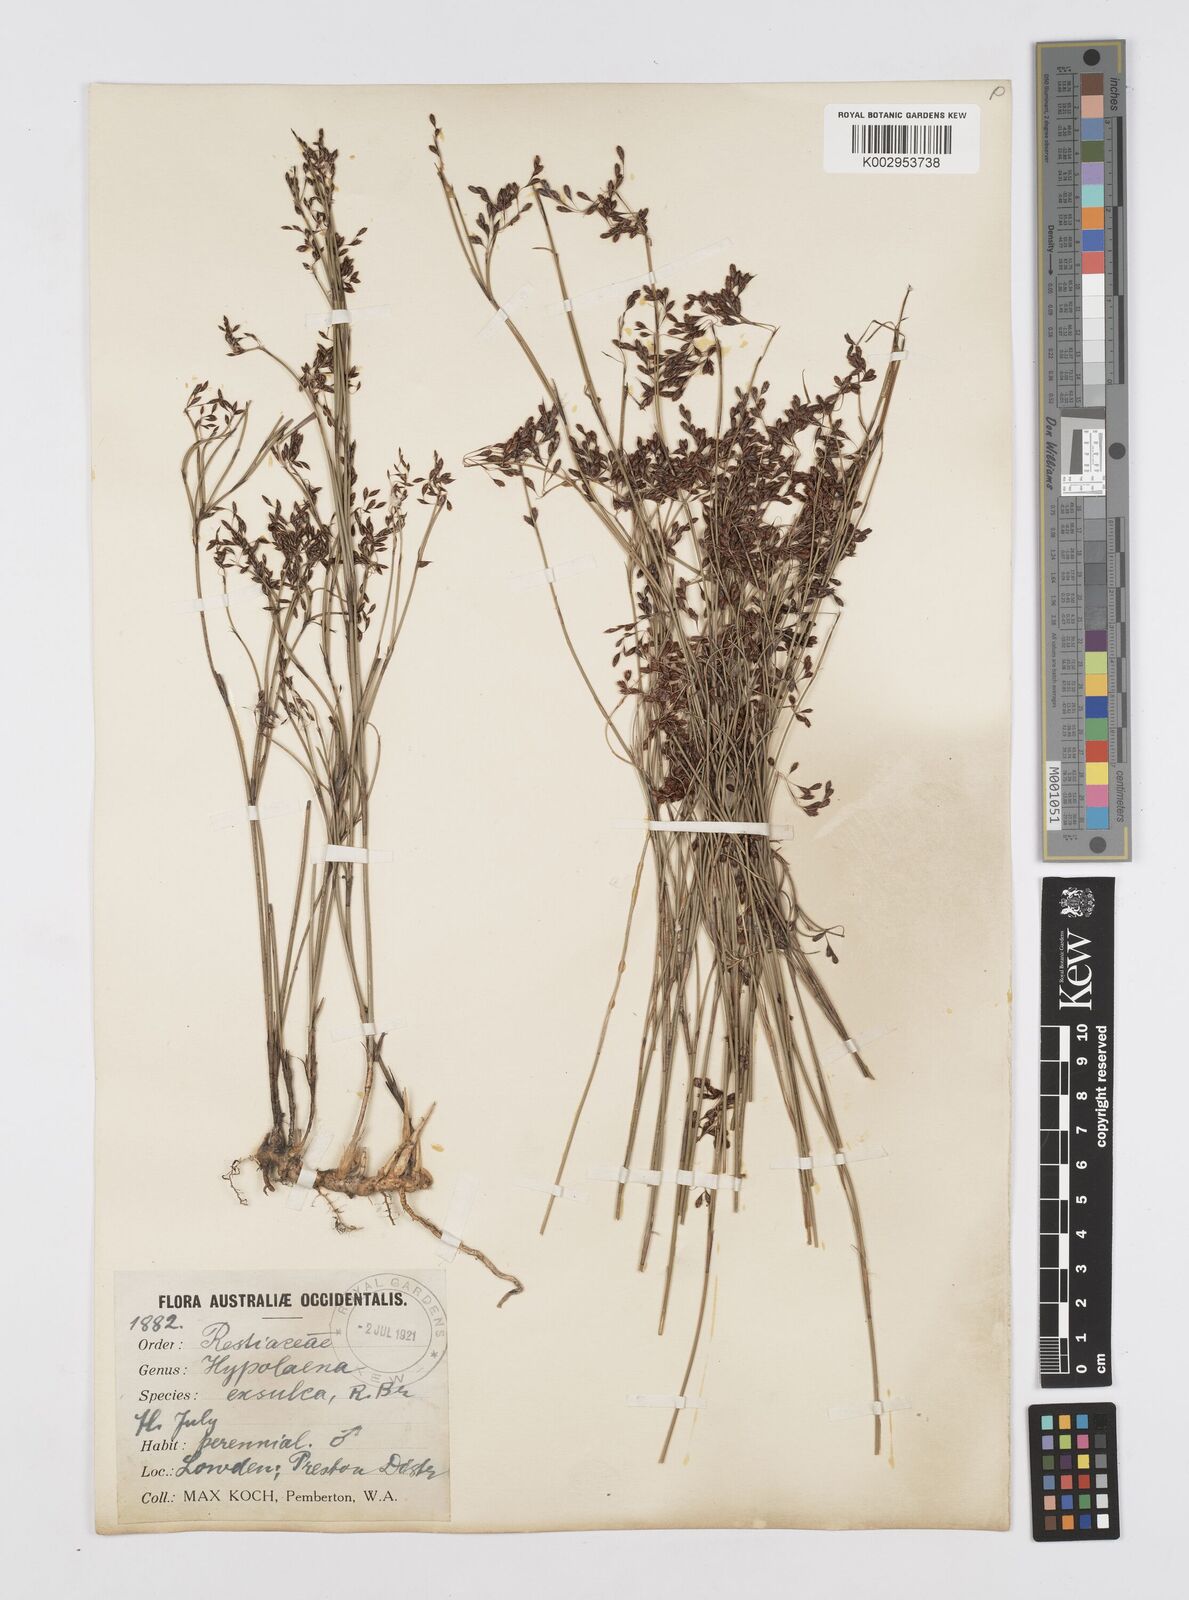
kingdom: Plantae
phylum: Tracheophyta
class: Liliopsida
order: Poales
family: Restionaceae
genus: Hypolaena
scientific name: Hypolaena exsulca
